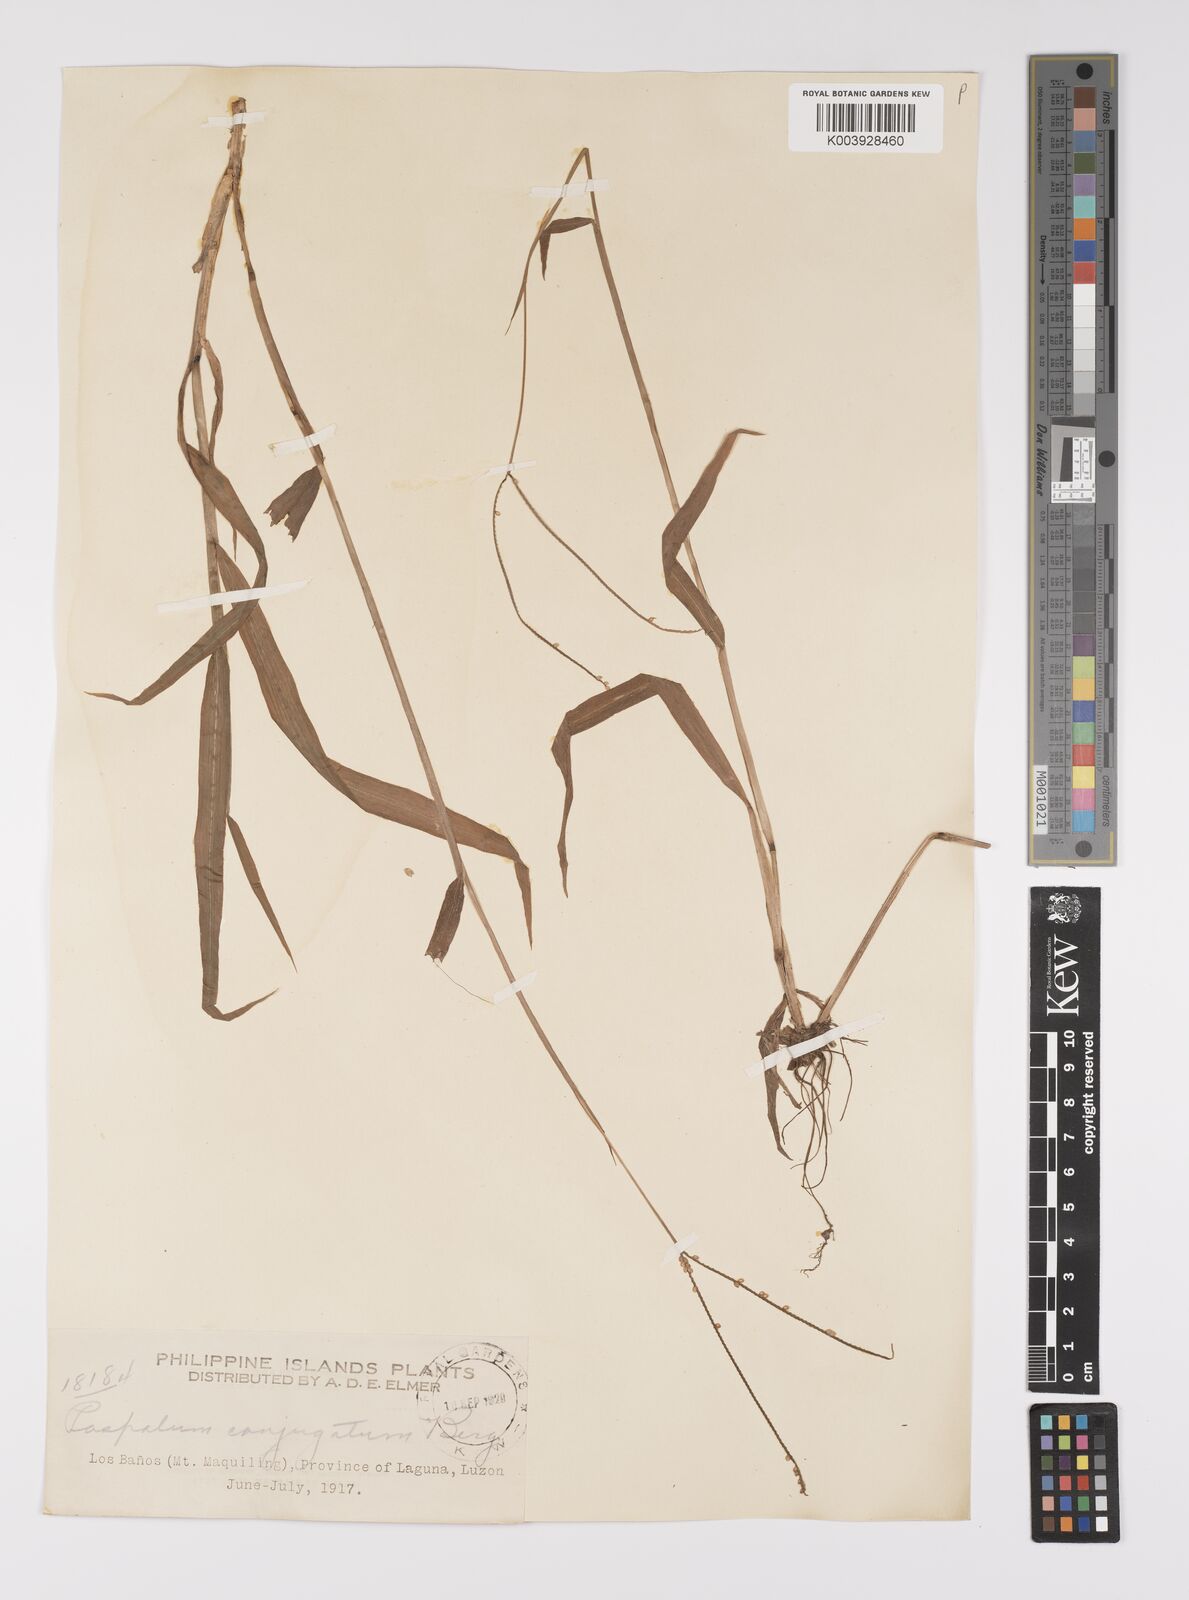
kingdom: Plantae
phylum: Tracheophyta
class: Liliopsida
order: Poales
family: Poaceae
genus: Paspalum
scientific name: Paspalum conjugatum
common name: Hilograss
